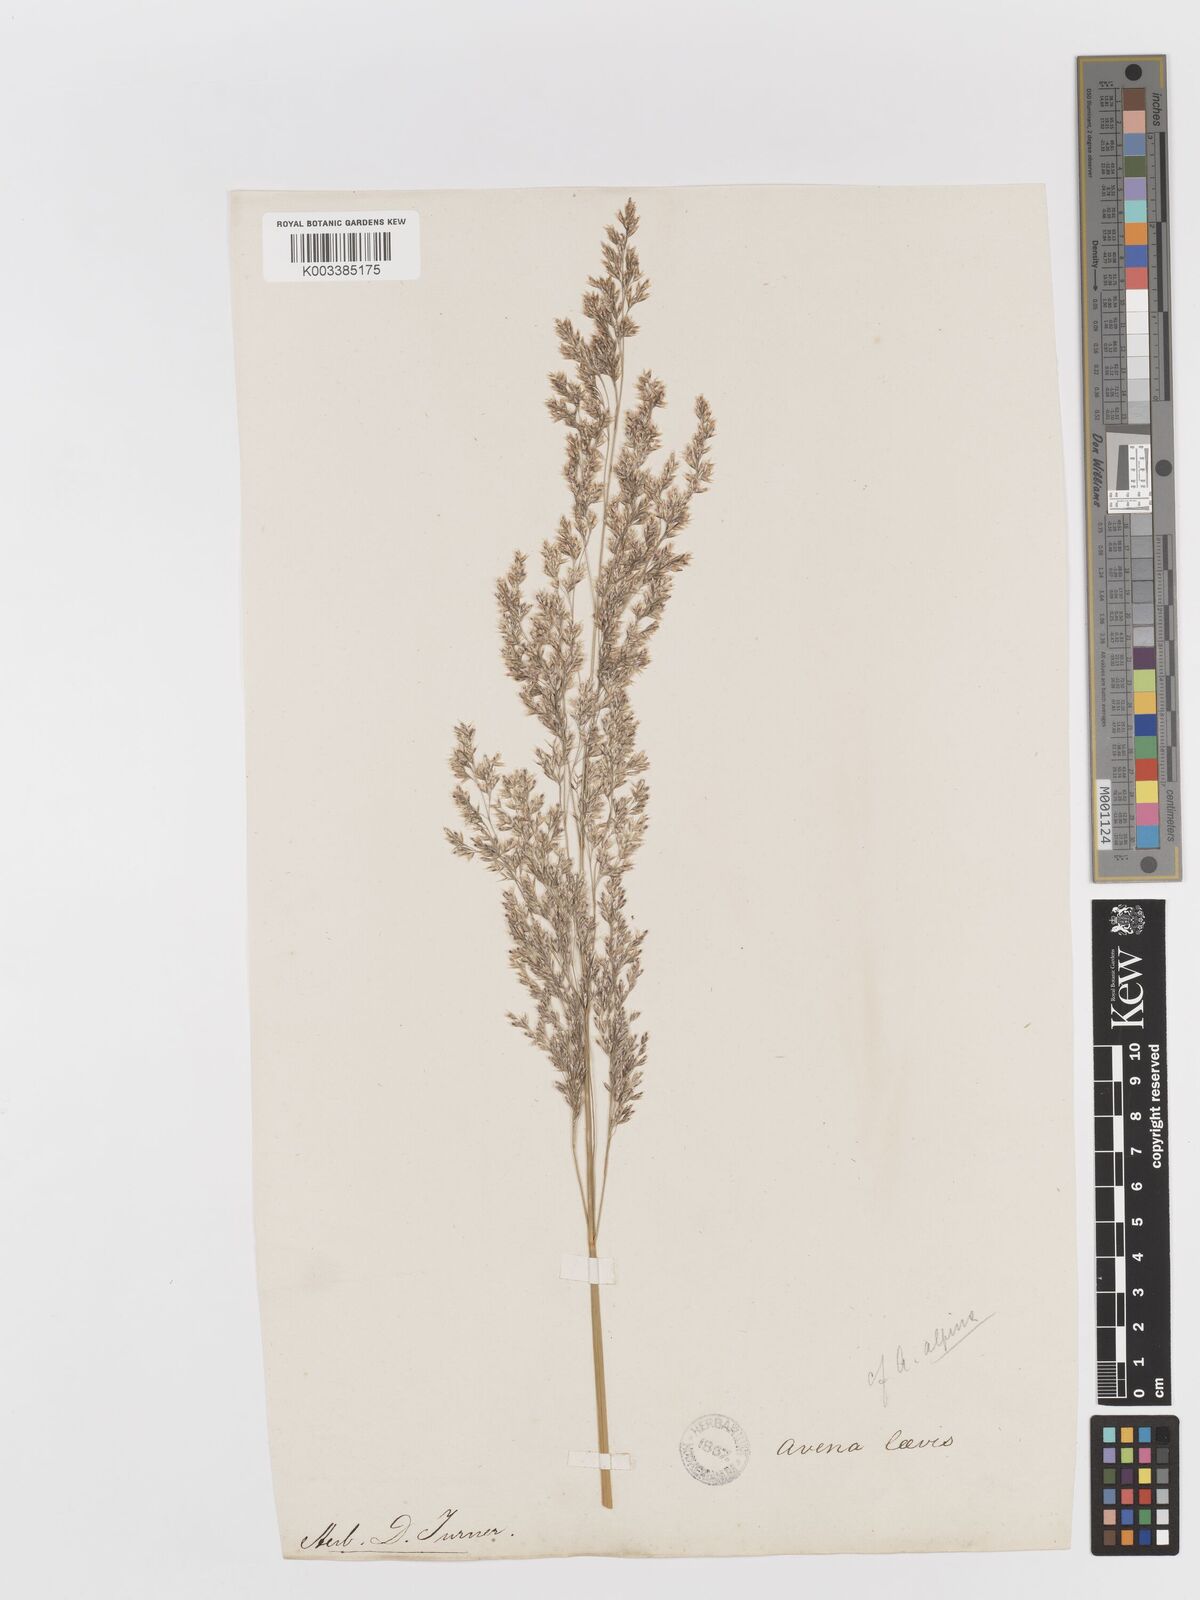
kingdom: Plantae
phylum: Tracheophyta
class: Liliopsida
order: Poales
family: Poaceae
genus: Deschampsia
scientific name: Deschampsia cespitosa
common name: Tufted hair-grass
